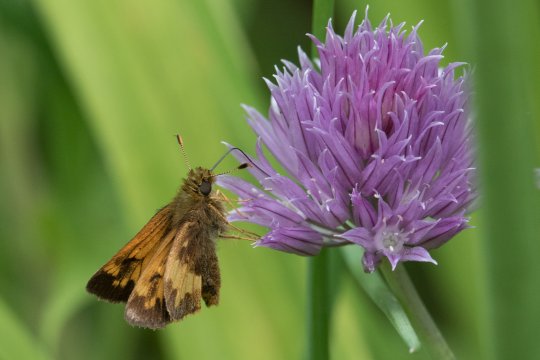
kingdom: Animalia
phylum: Arthropoda
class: Insecta
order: Lepidoptera
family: Hesperiidae
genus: Lon
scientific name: Lon hobomok
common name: Hobomok Skipper
